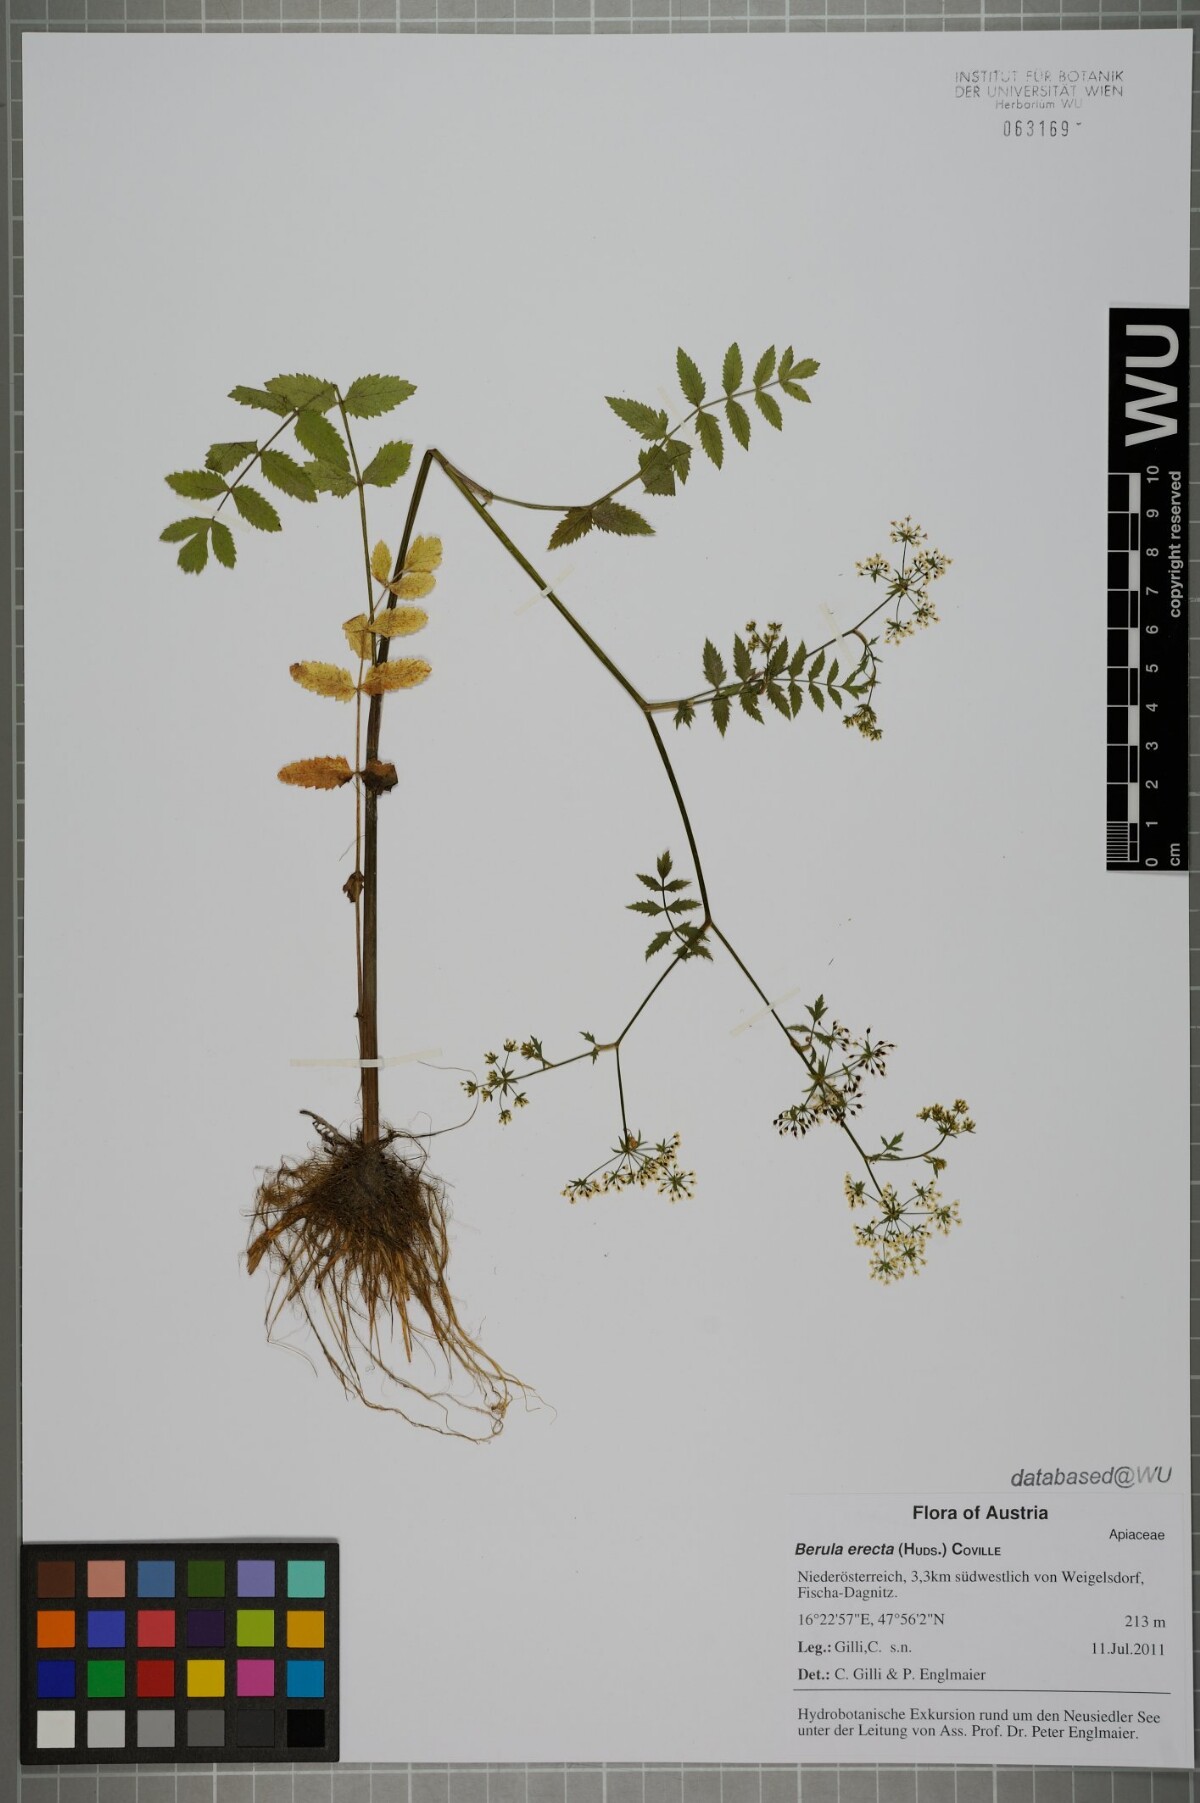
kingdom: Plantae
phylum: Tracheophyta
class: Magnoliopsida
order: Apiales
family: Apiaceae
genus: Berula
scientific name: Berula erecta
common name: Lesser water-parsnip
